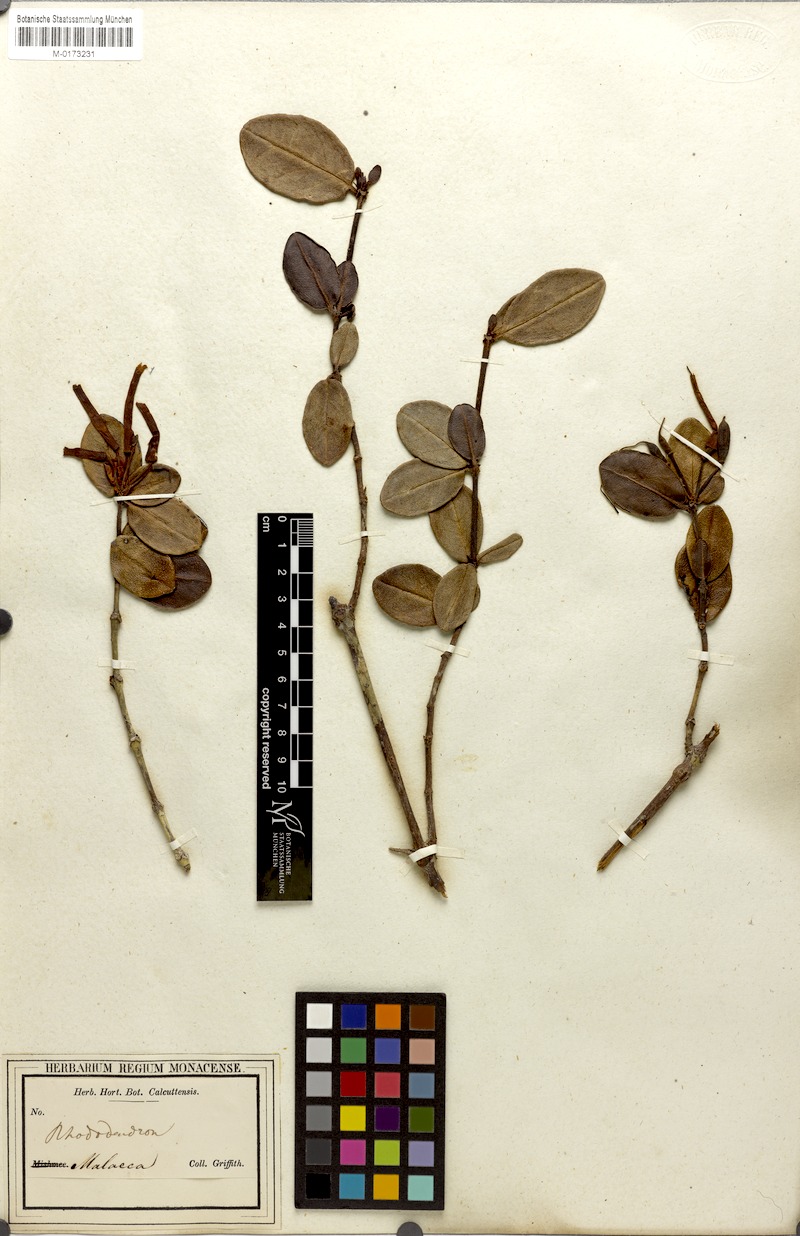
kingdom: Plantae
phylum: Tracheophyta
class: Magnoliopsida
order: Ericales
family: Ericaceae
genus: Rhododendron
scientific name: Rhododendron jasminiflorum
